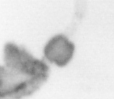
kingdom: Animalia
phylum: Annelida
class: Polychaeta
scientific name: Polychaeta
